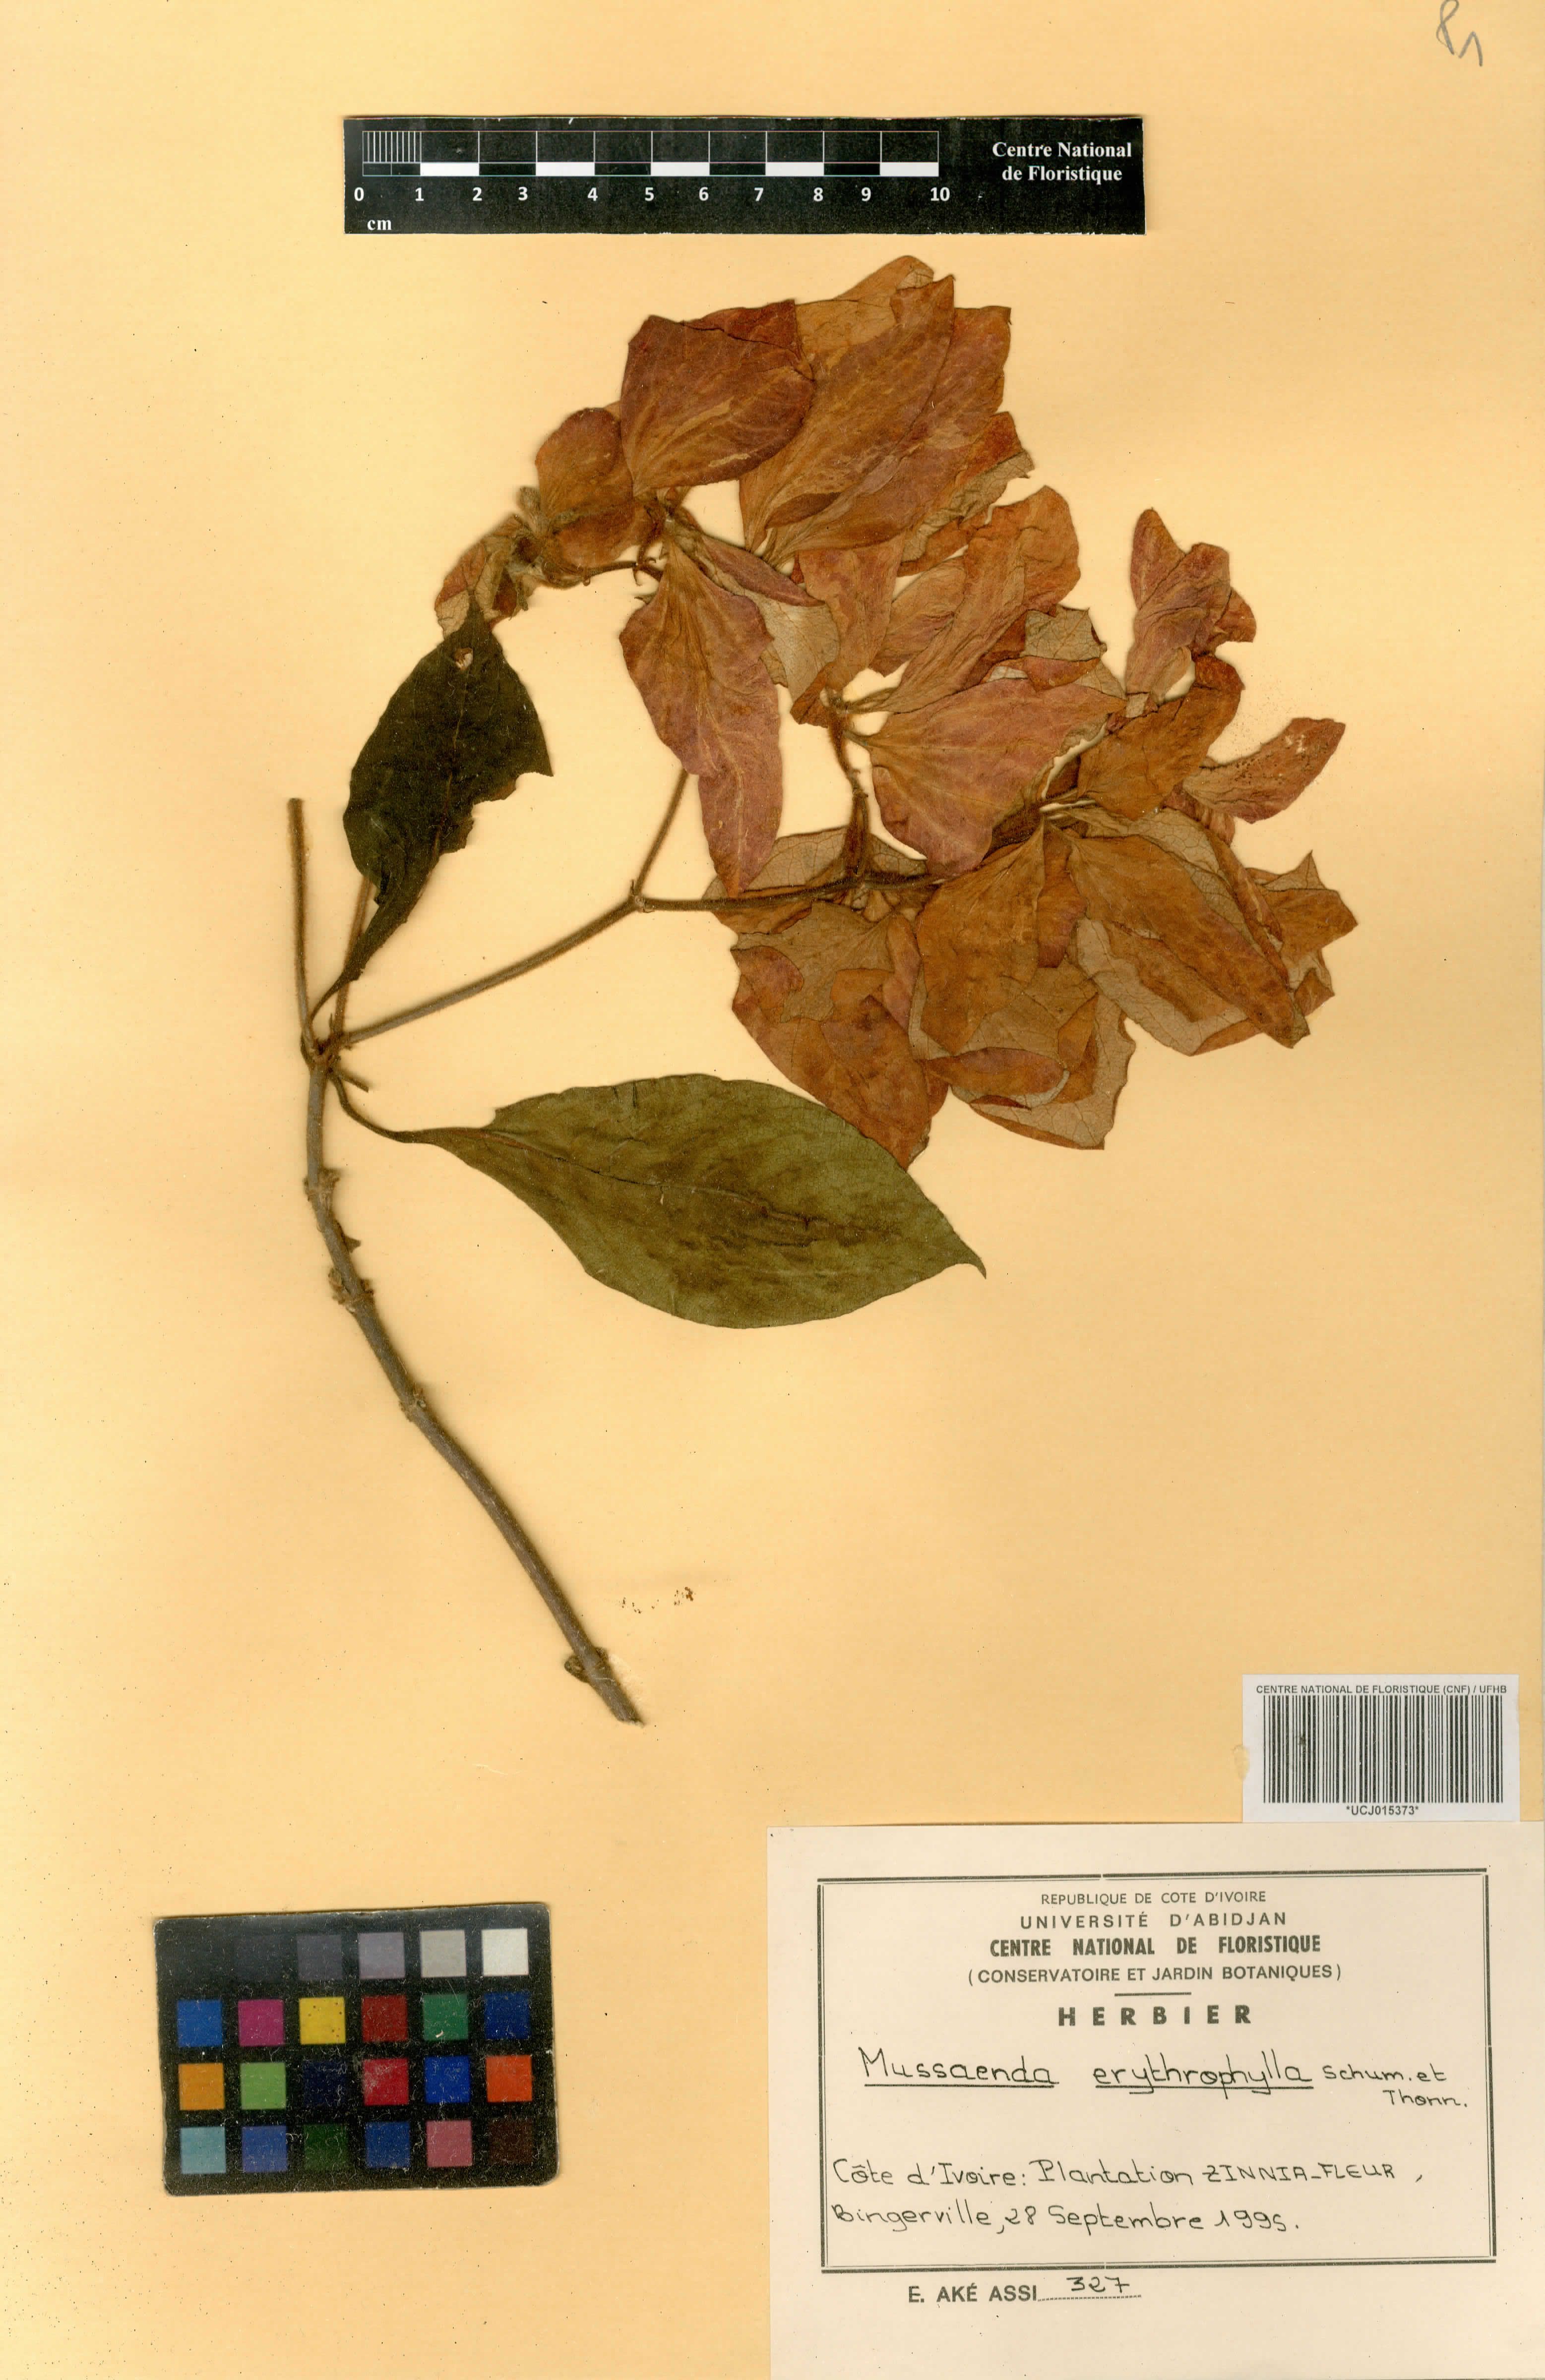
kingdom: Plantae
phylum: Tracheophyta
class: Magnoliopsida
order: Gentianales
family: Rubiaceae
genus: Mussaenda
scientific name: Mussaenda erythrophylla
